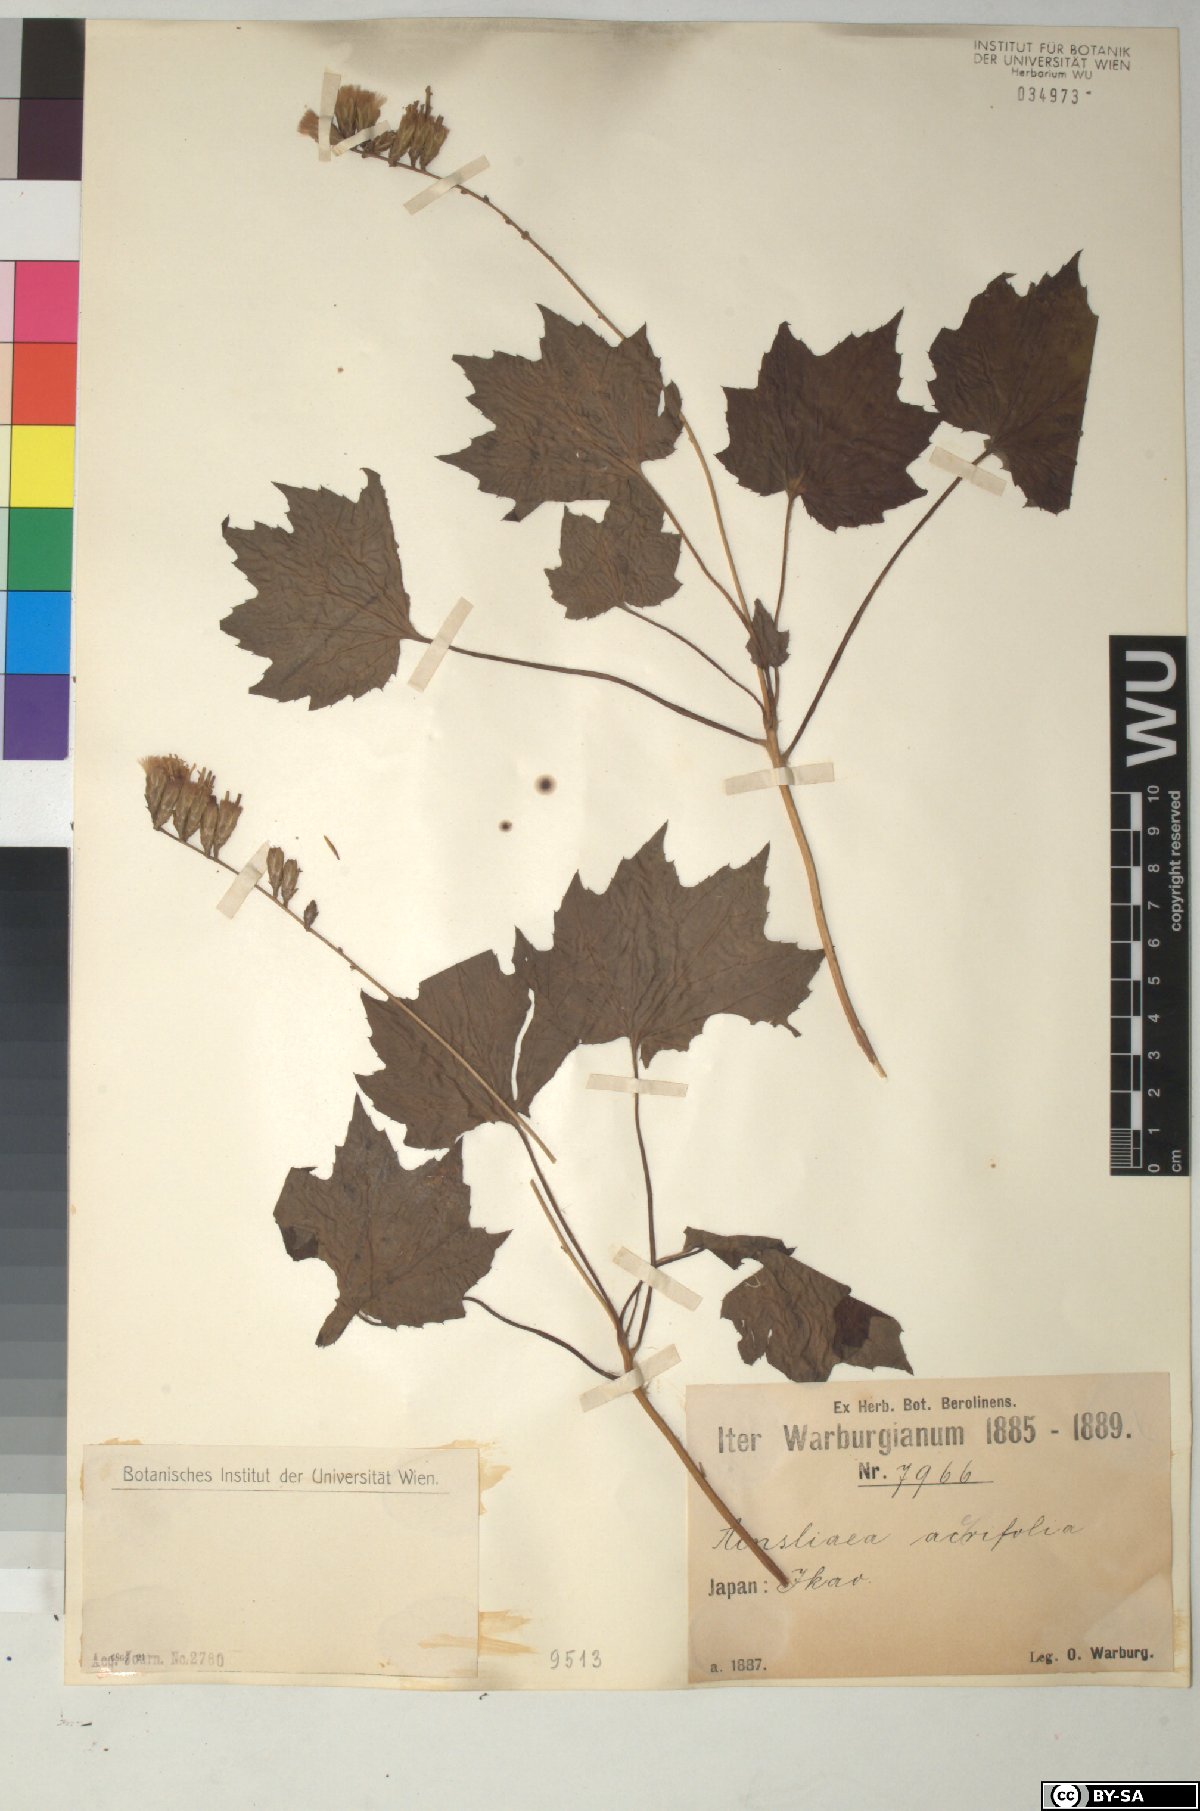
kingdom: Plantae
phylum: Tracheophyta
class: Magnoliopsida
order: Asterales
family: Asteraceae
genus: Ainsliaea
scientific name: Ainsliaea acerifolia
